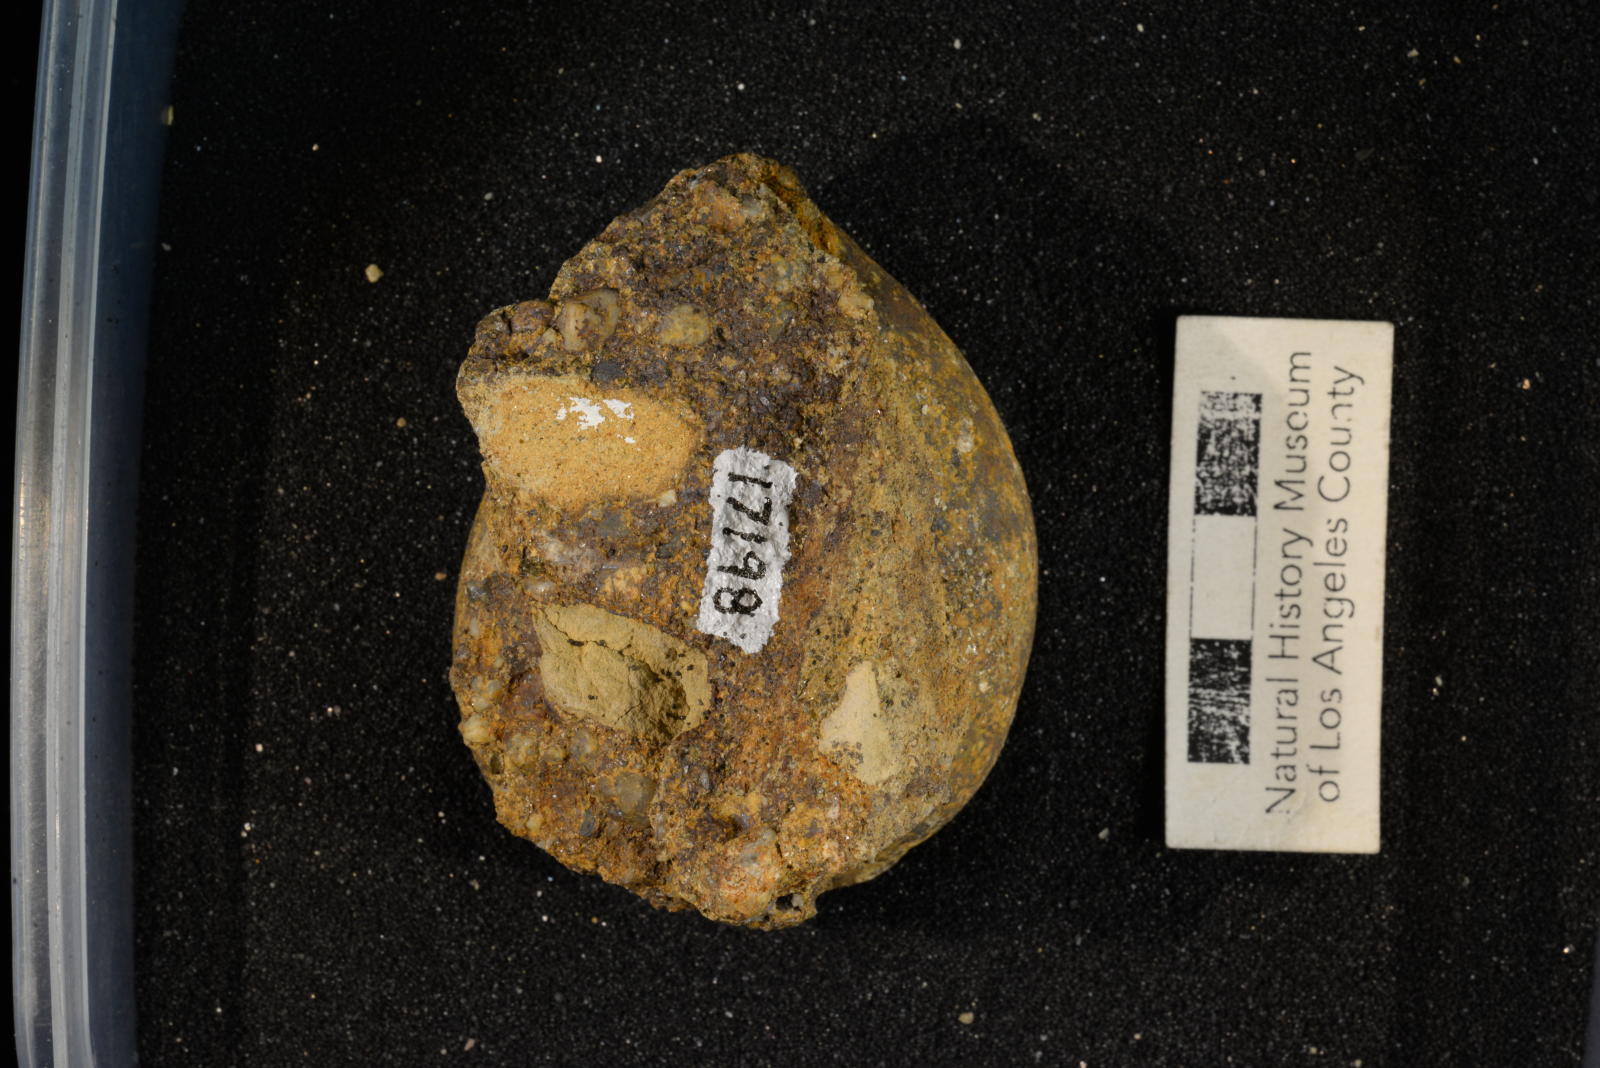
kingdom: Animalia
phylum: Mollusca
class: Gastropoda
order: Littorinimorpha
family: Cypraeidae
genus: Protocypraea
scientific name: Protocypraea
